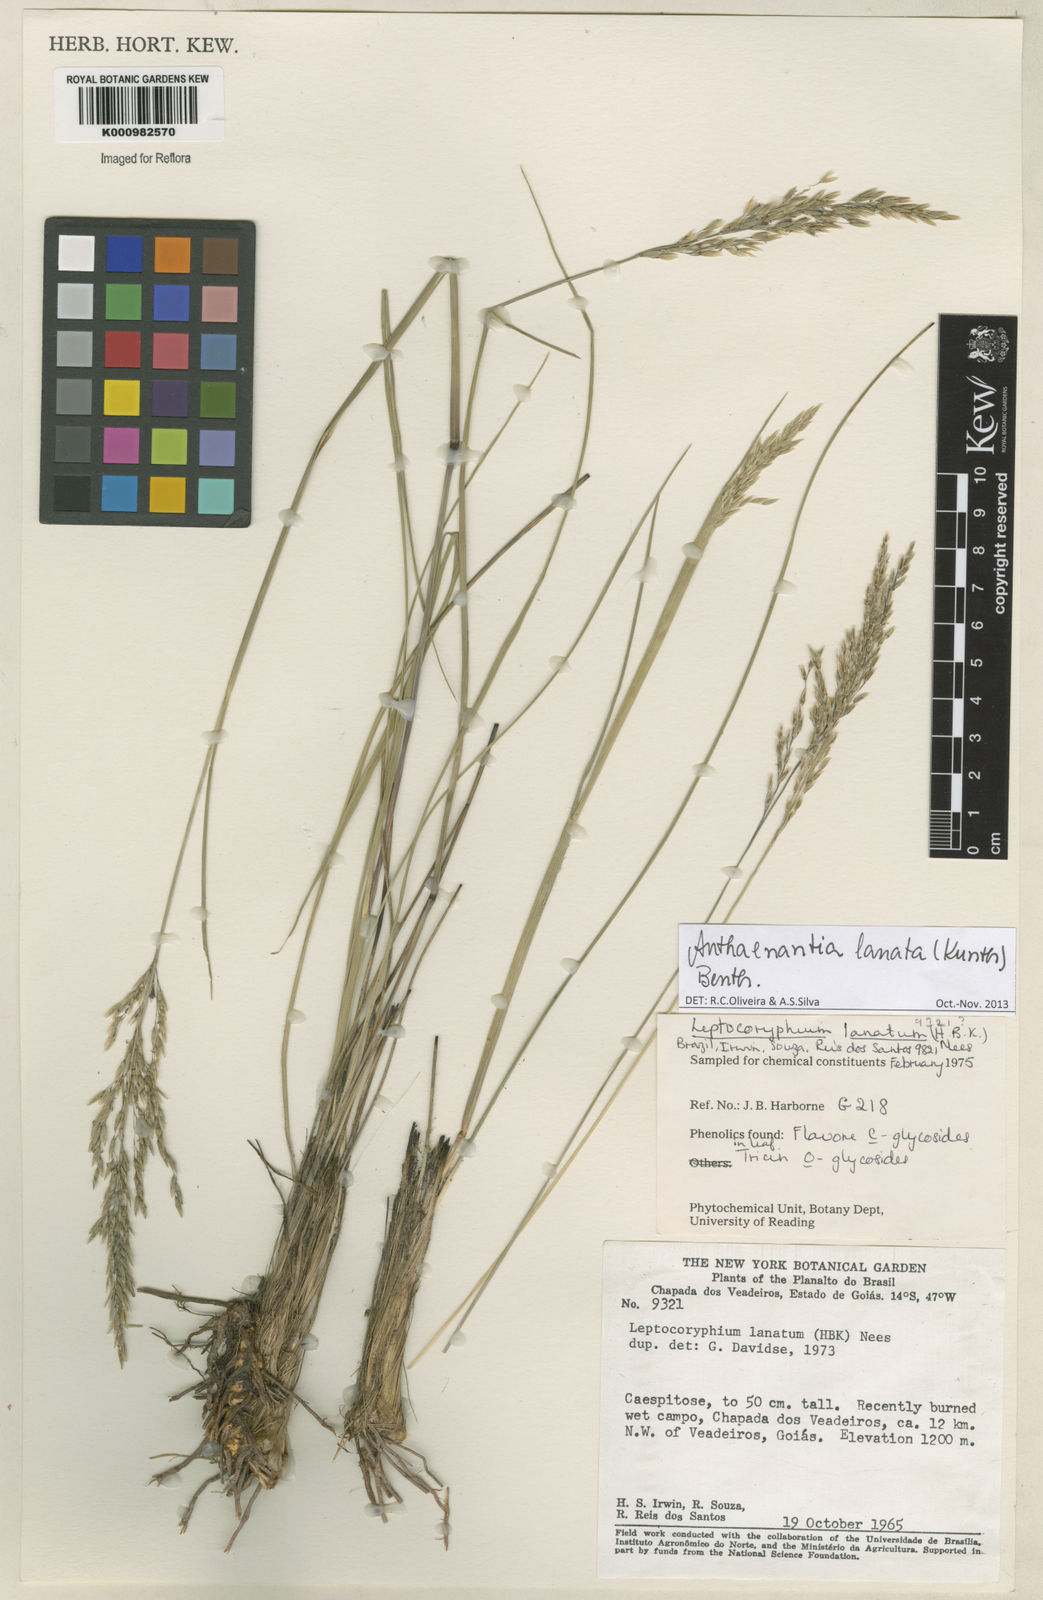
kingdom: Plantae
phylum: Tracheophyta
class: Liliopsida
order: Poales
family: Poaceae
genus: Anthenantia
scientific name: Anthenantia lanata
